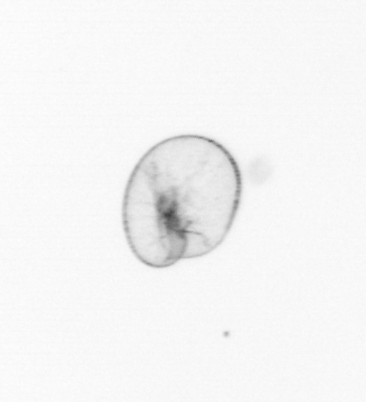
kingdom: Chromista
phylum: Myzozoa
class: Dinophyceae
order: Noctilucales
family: Noctilucaceae
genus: Noctiluca
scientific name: Noctiluca scintillans
